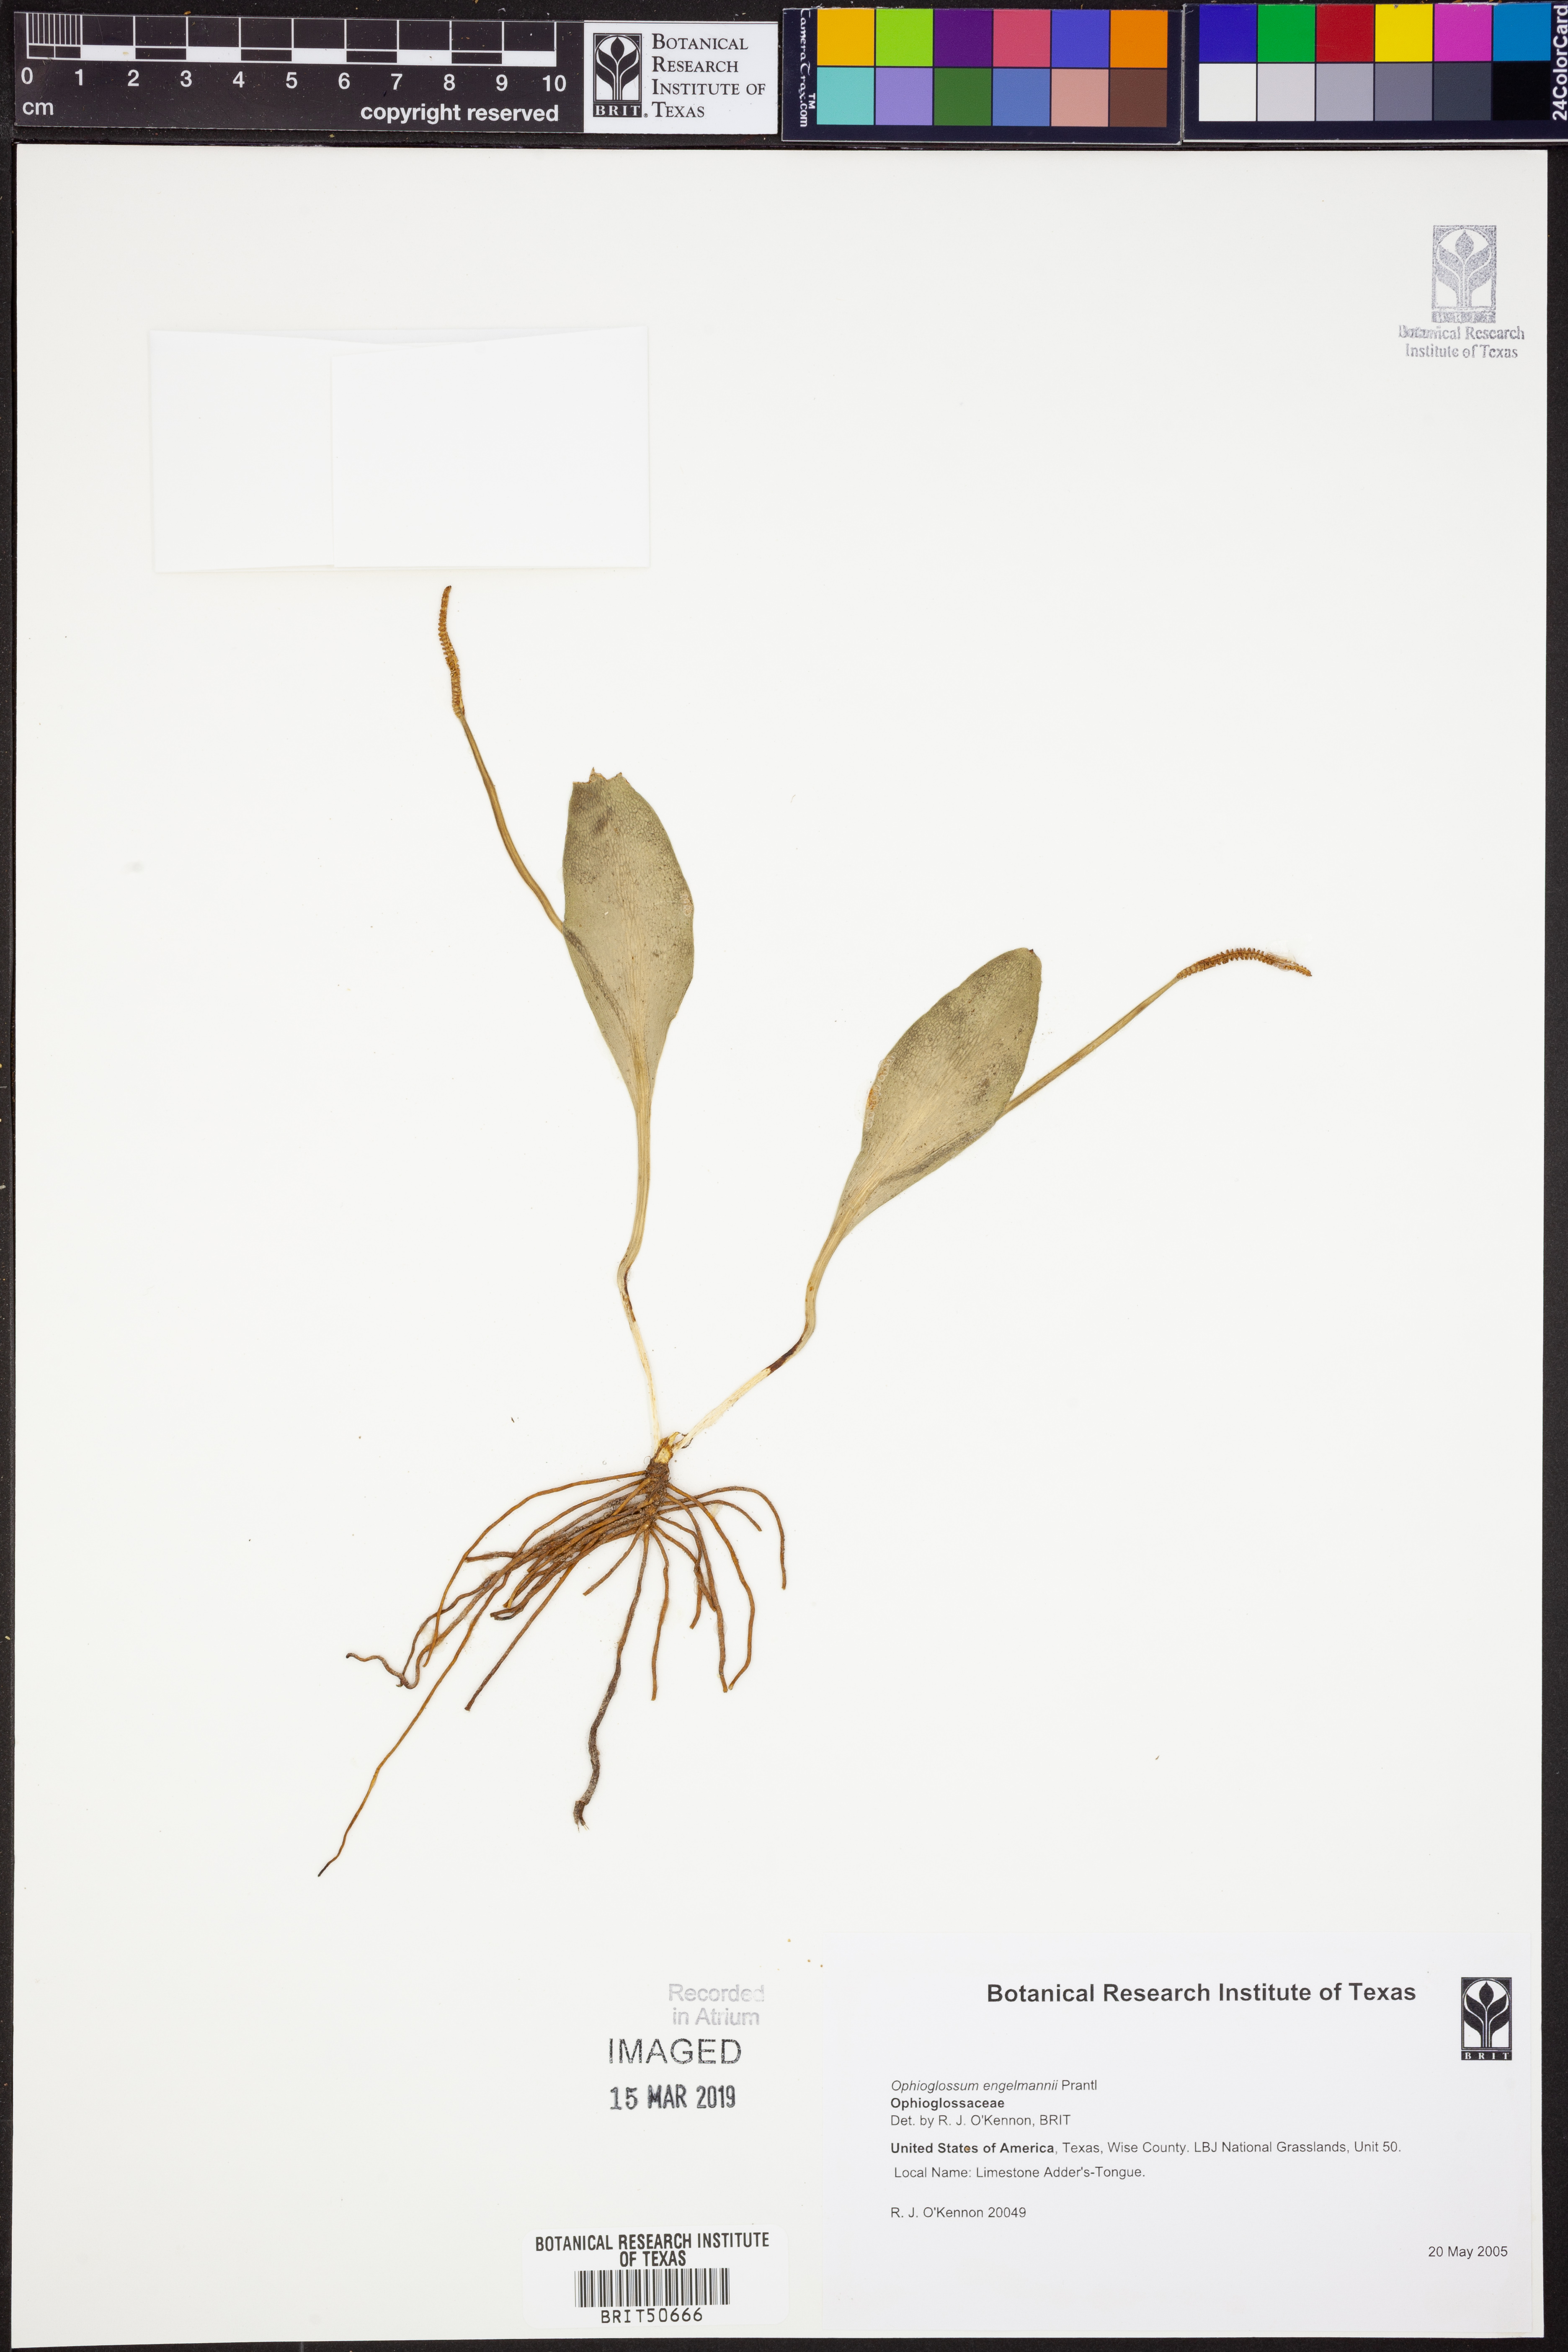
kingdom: Plantae
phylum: Tracheophyta
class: Polypodiopsida
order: Ophioglossales
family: Ophioglossaceae
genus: Ophioglossum
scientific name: Ophioglossum engelmannii
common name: Limestone adder's-tongue
